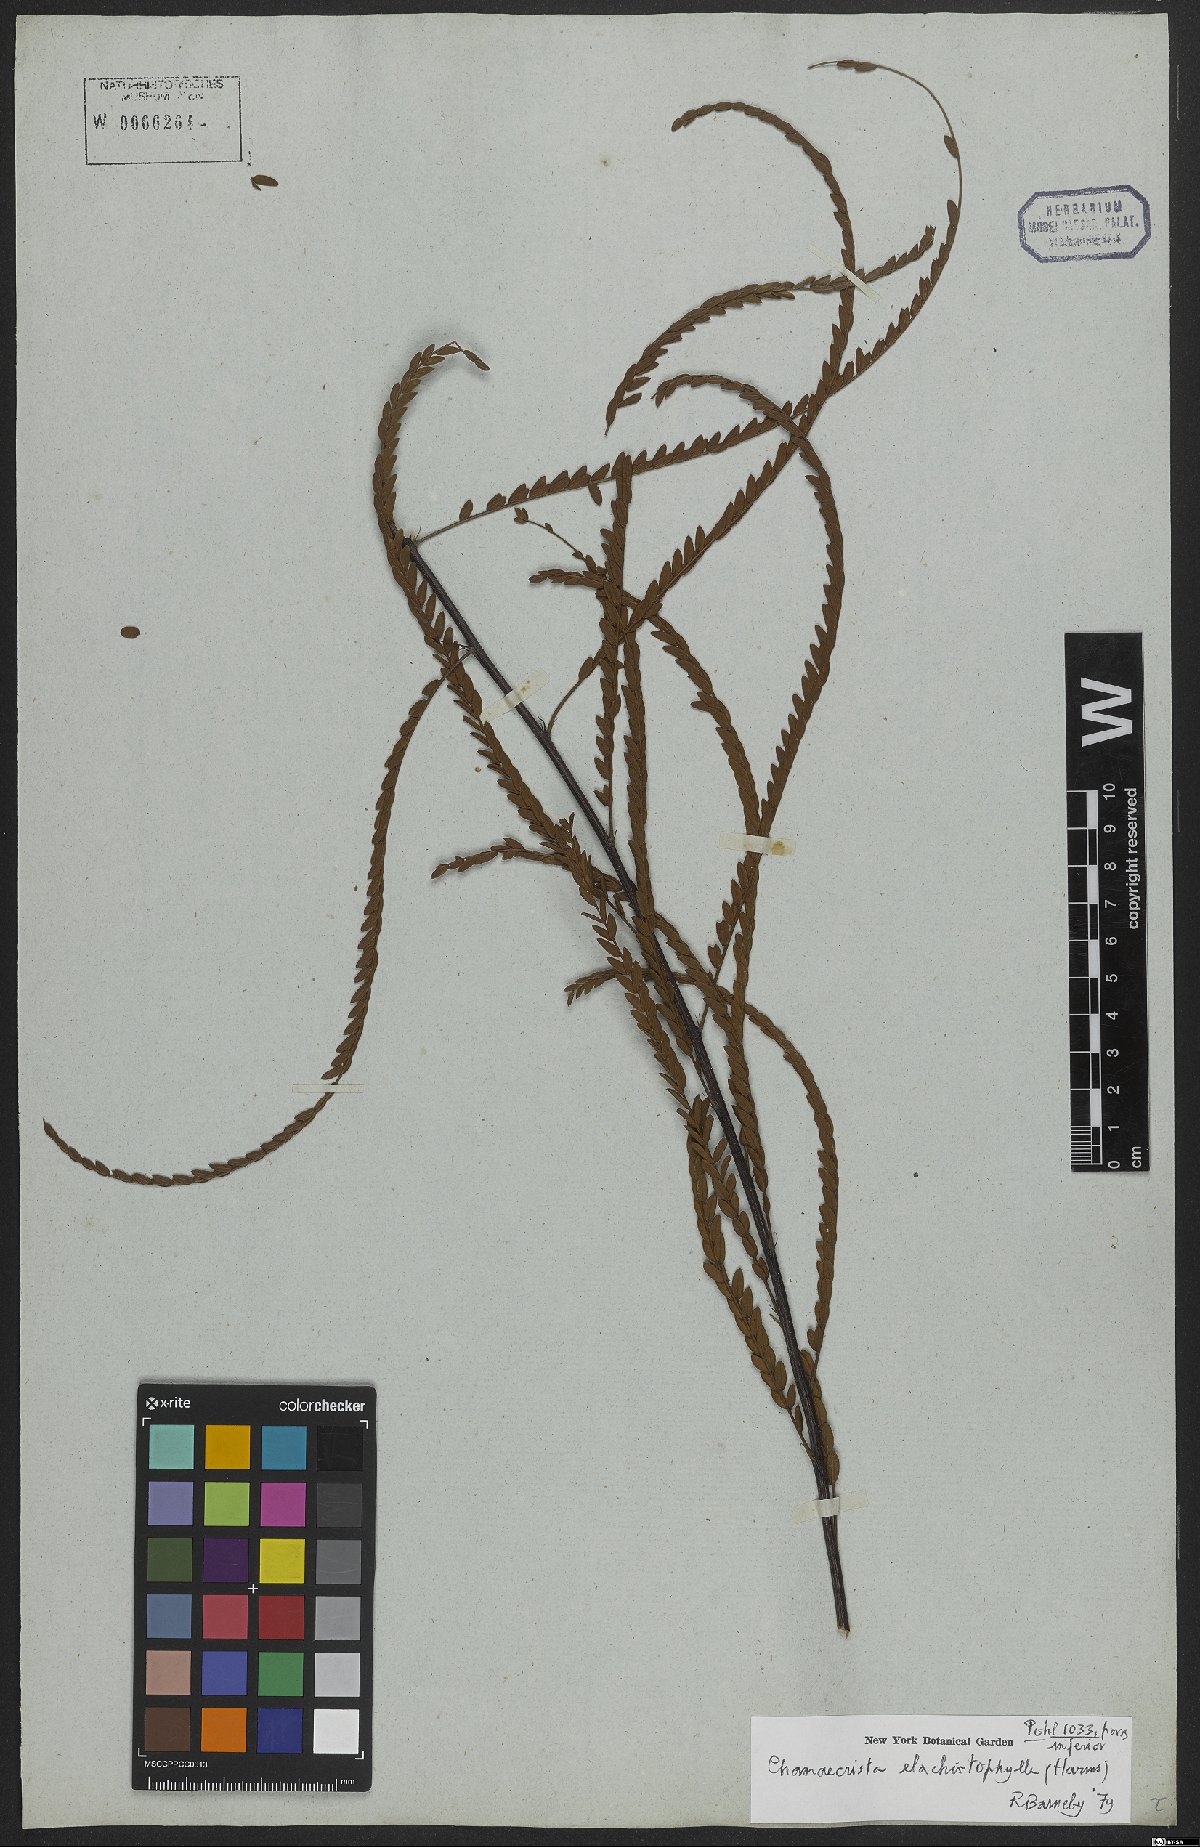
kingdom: Plantae
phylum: Tracheophyta
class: Magnoliopsida
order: Fabales
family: Fabaceae
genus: Chamaecrista
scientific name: Chamaecrista elachistophylla
